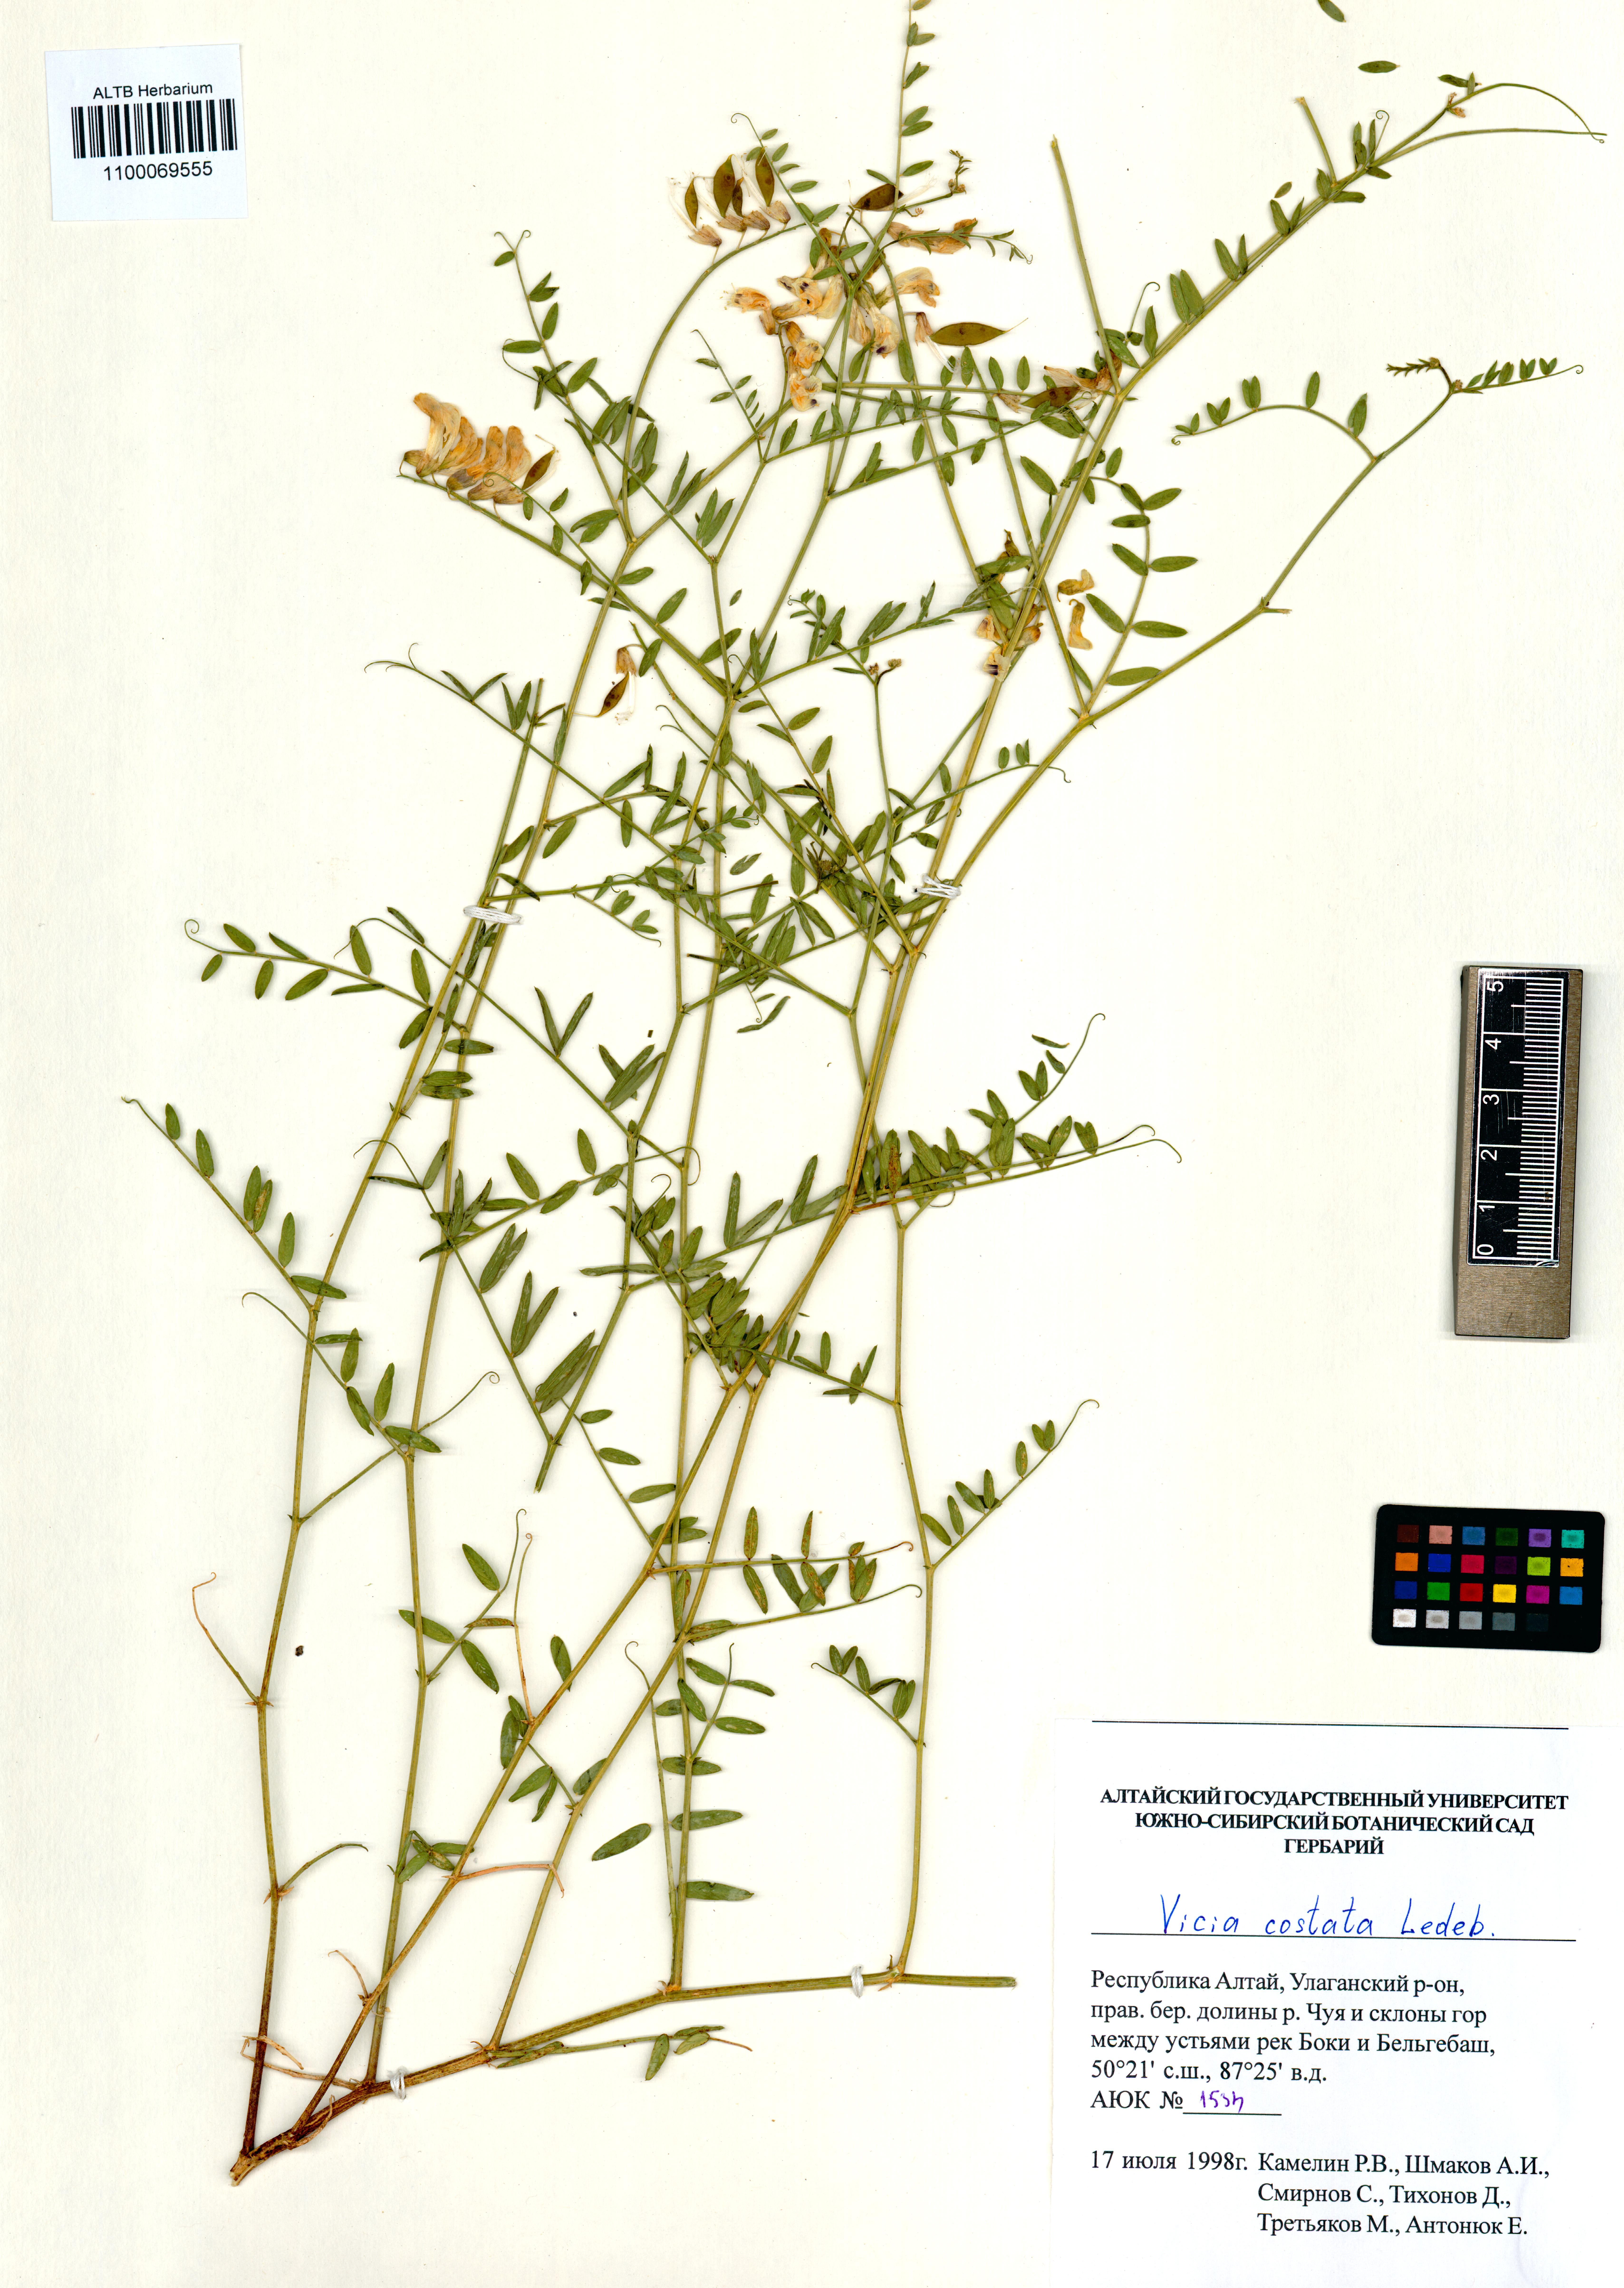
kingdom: Plantae
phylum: Tracheophyta
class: Magnoliopsida
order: Fabales
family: Fabaceae
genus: Vicia
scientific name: Vicia costata
